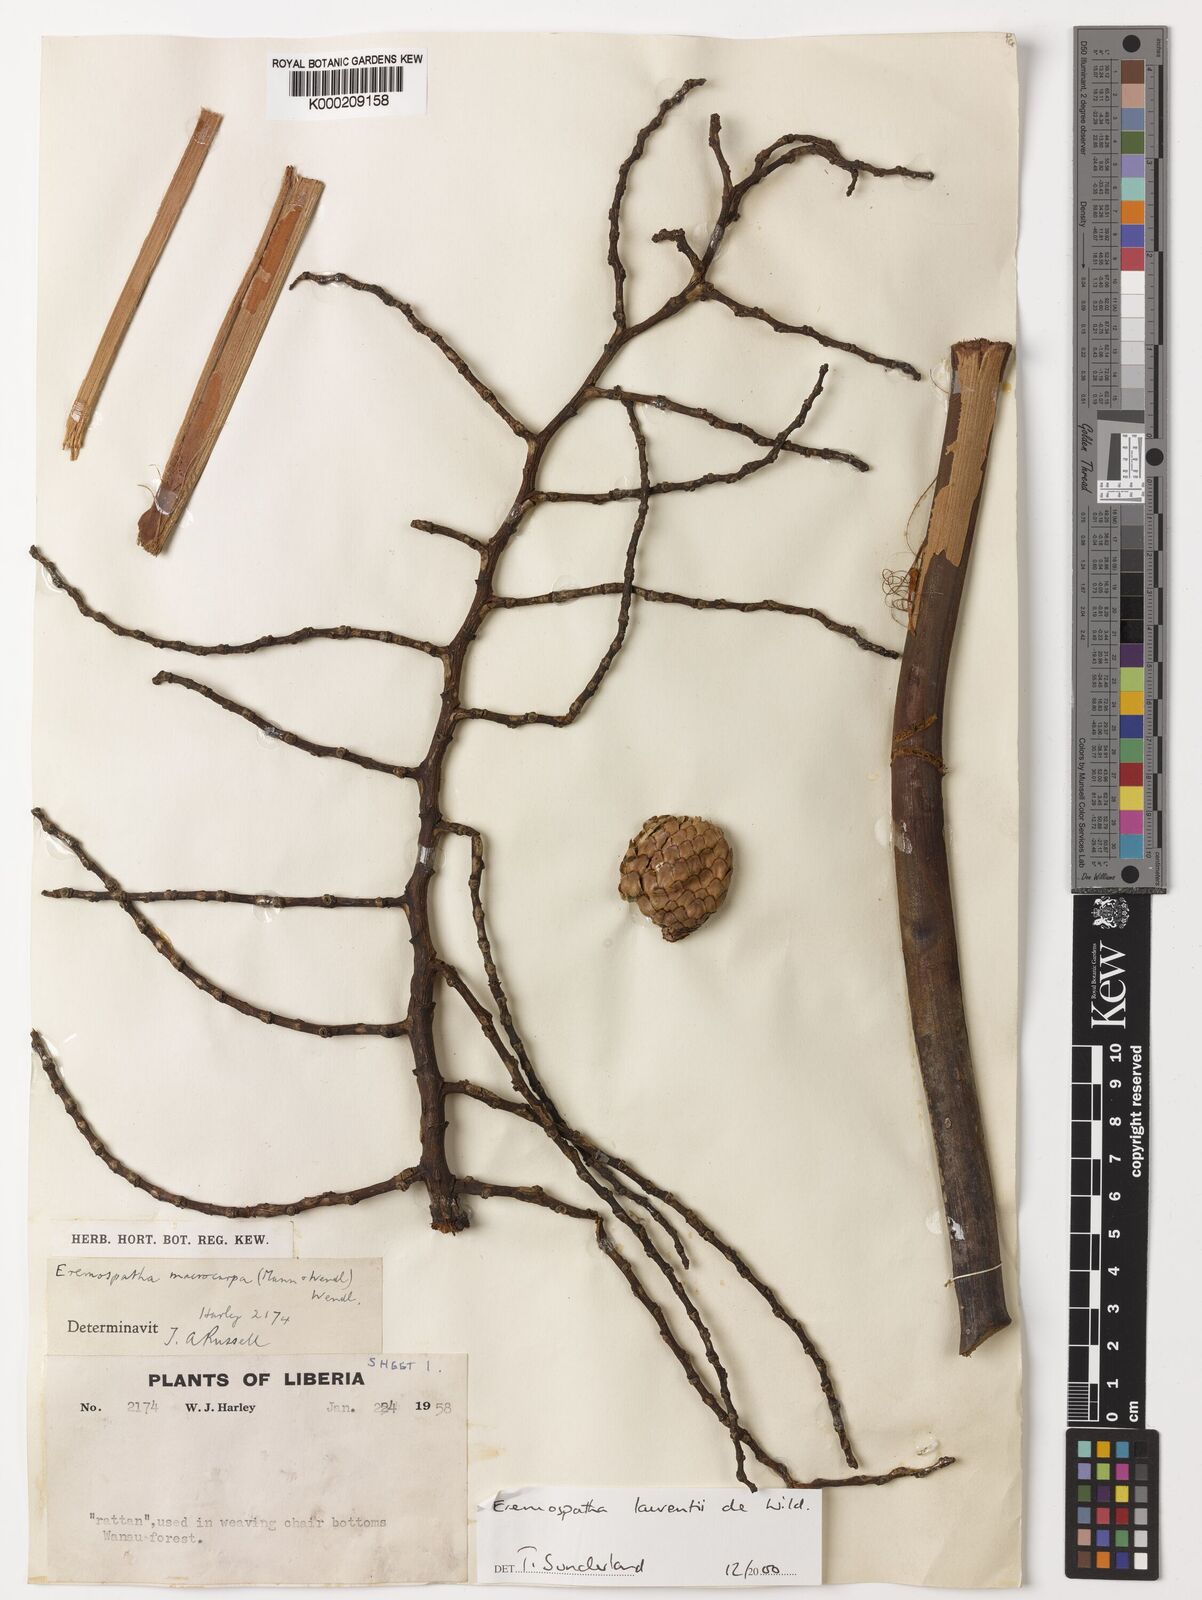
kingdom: Plantae
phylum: Tracheophyta
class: Liliopsida
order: Arecales
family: Arecaceae
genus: Eremospatha
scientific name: Eremospatha laurentii
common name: Rattan palm
